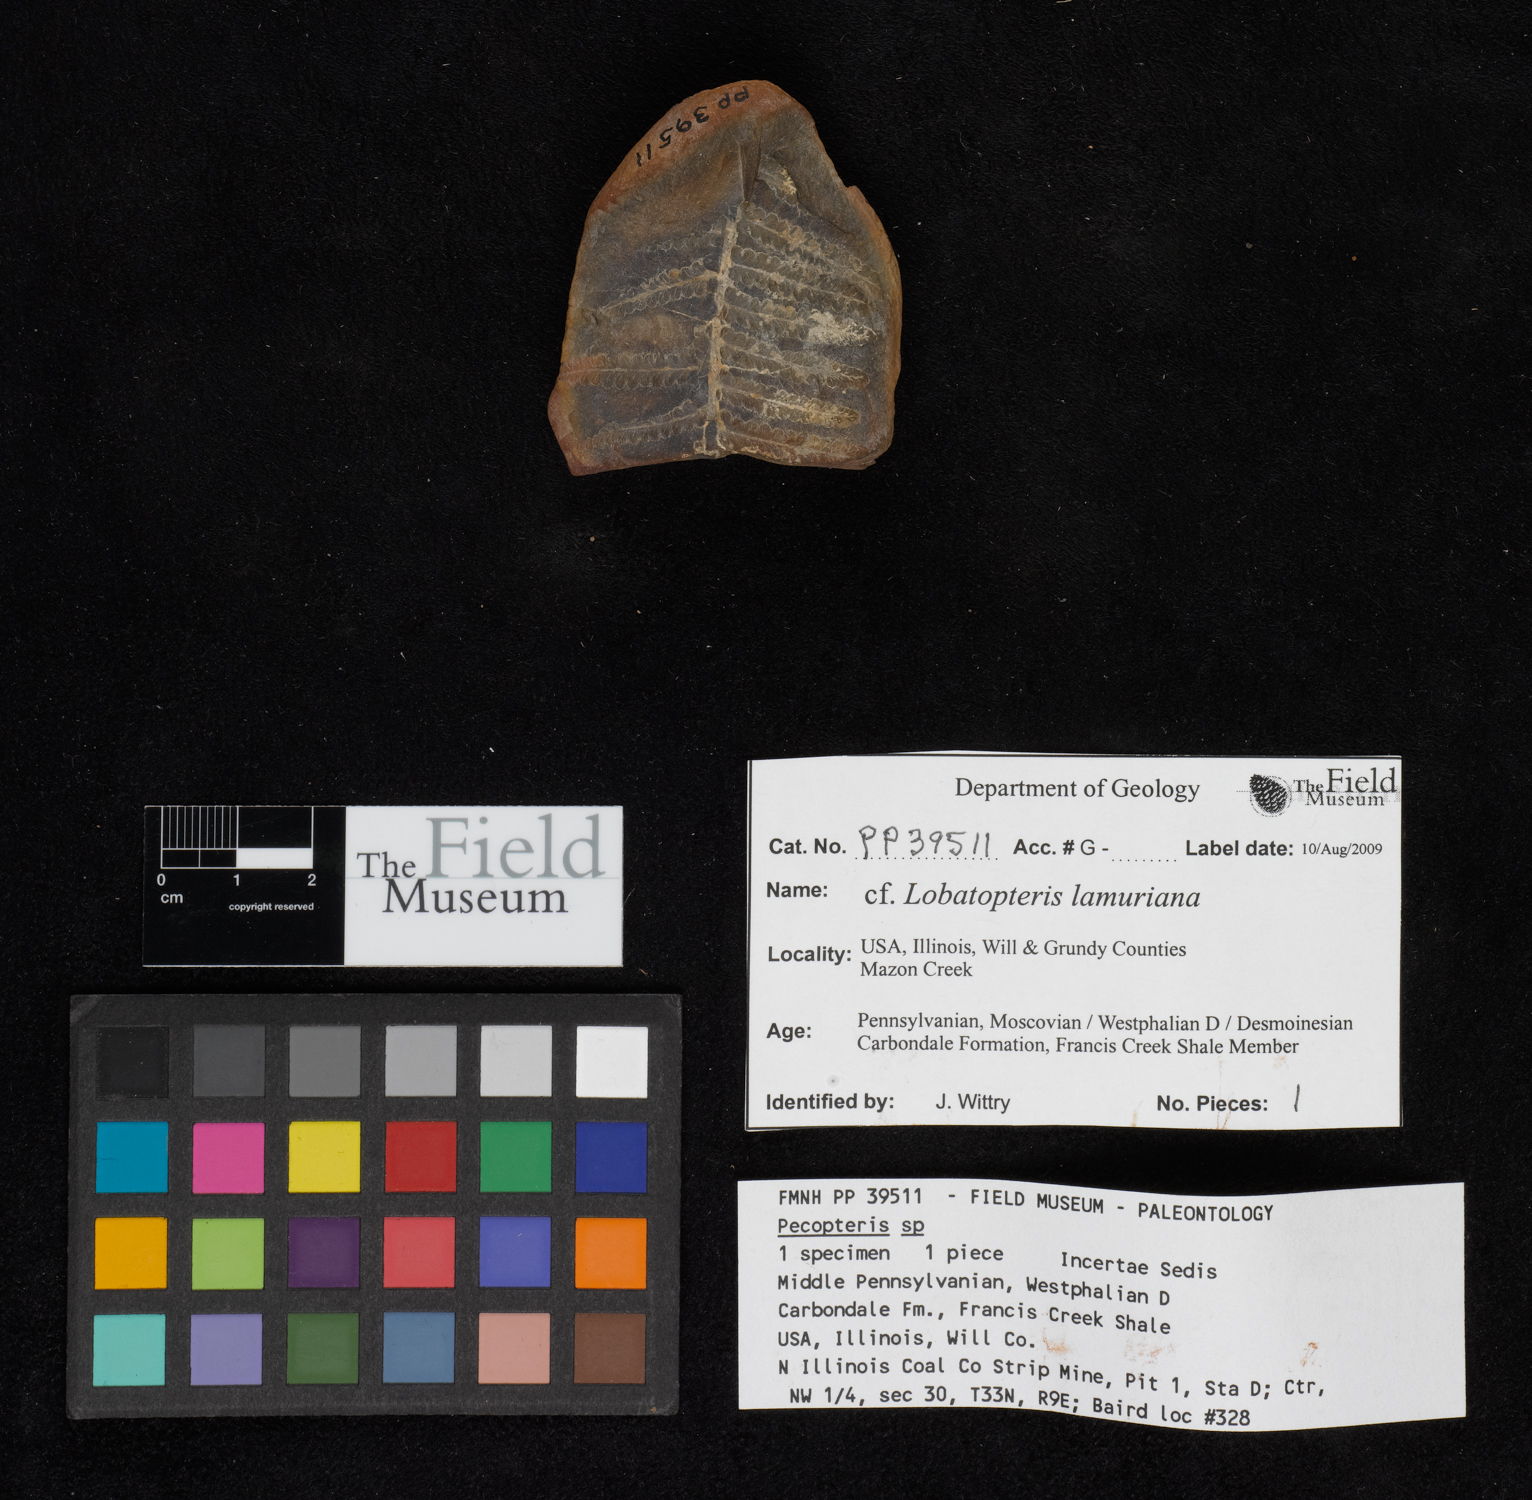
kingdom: Plantae
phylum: Tracheophyta
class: Polypodiopsida
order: Marattiales
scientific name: Marattiales
